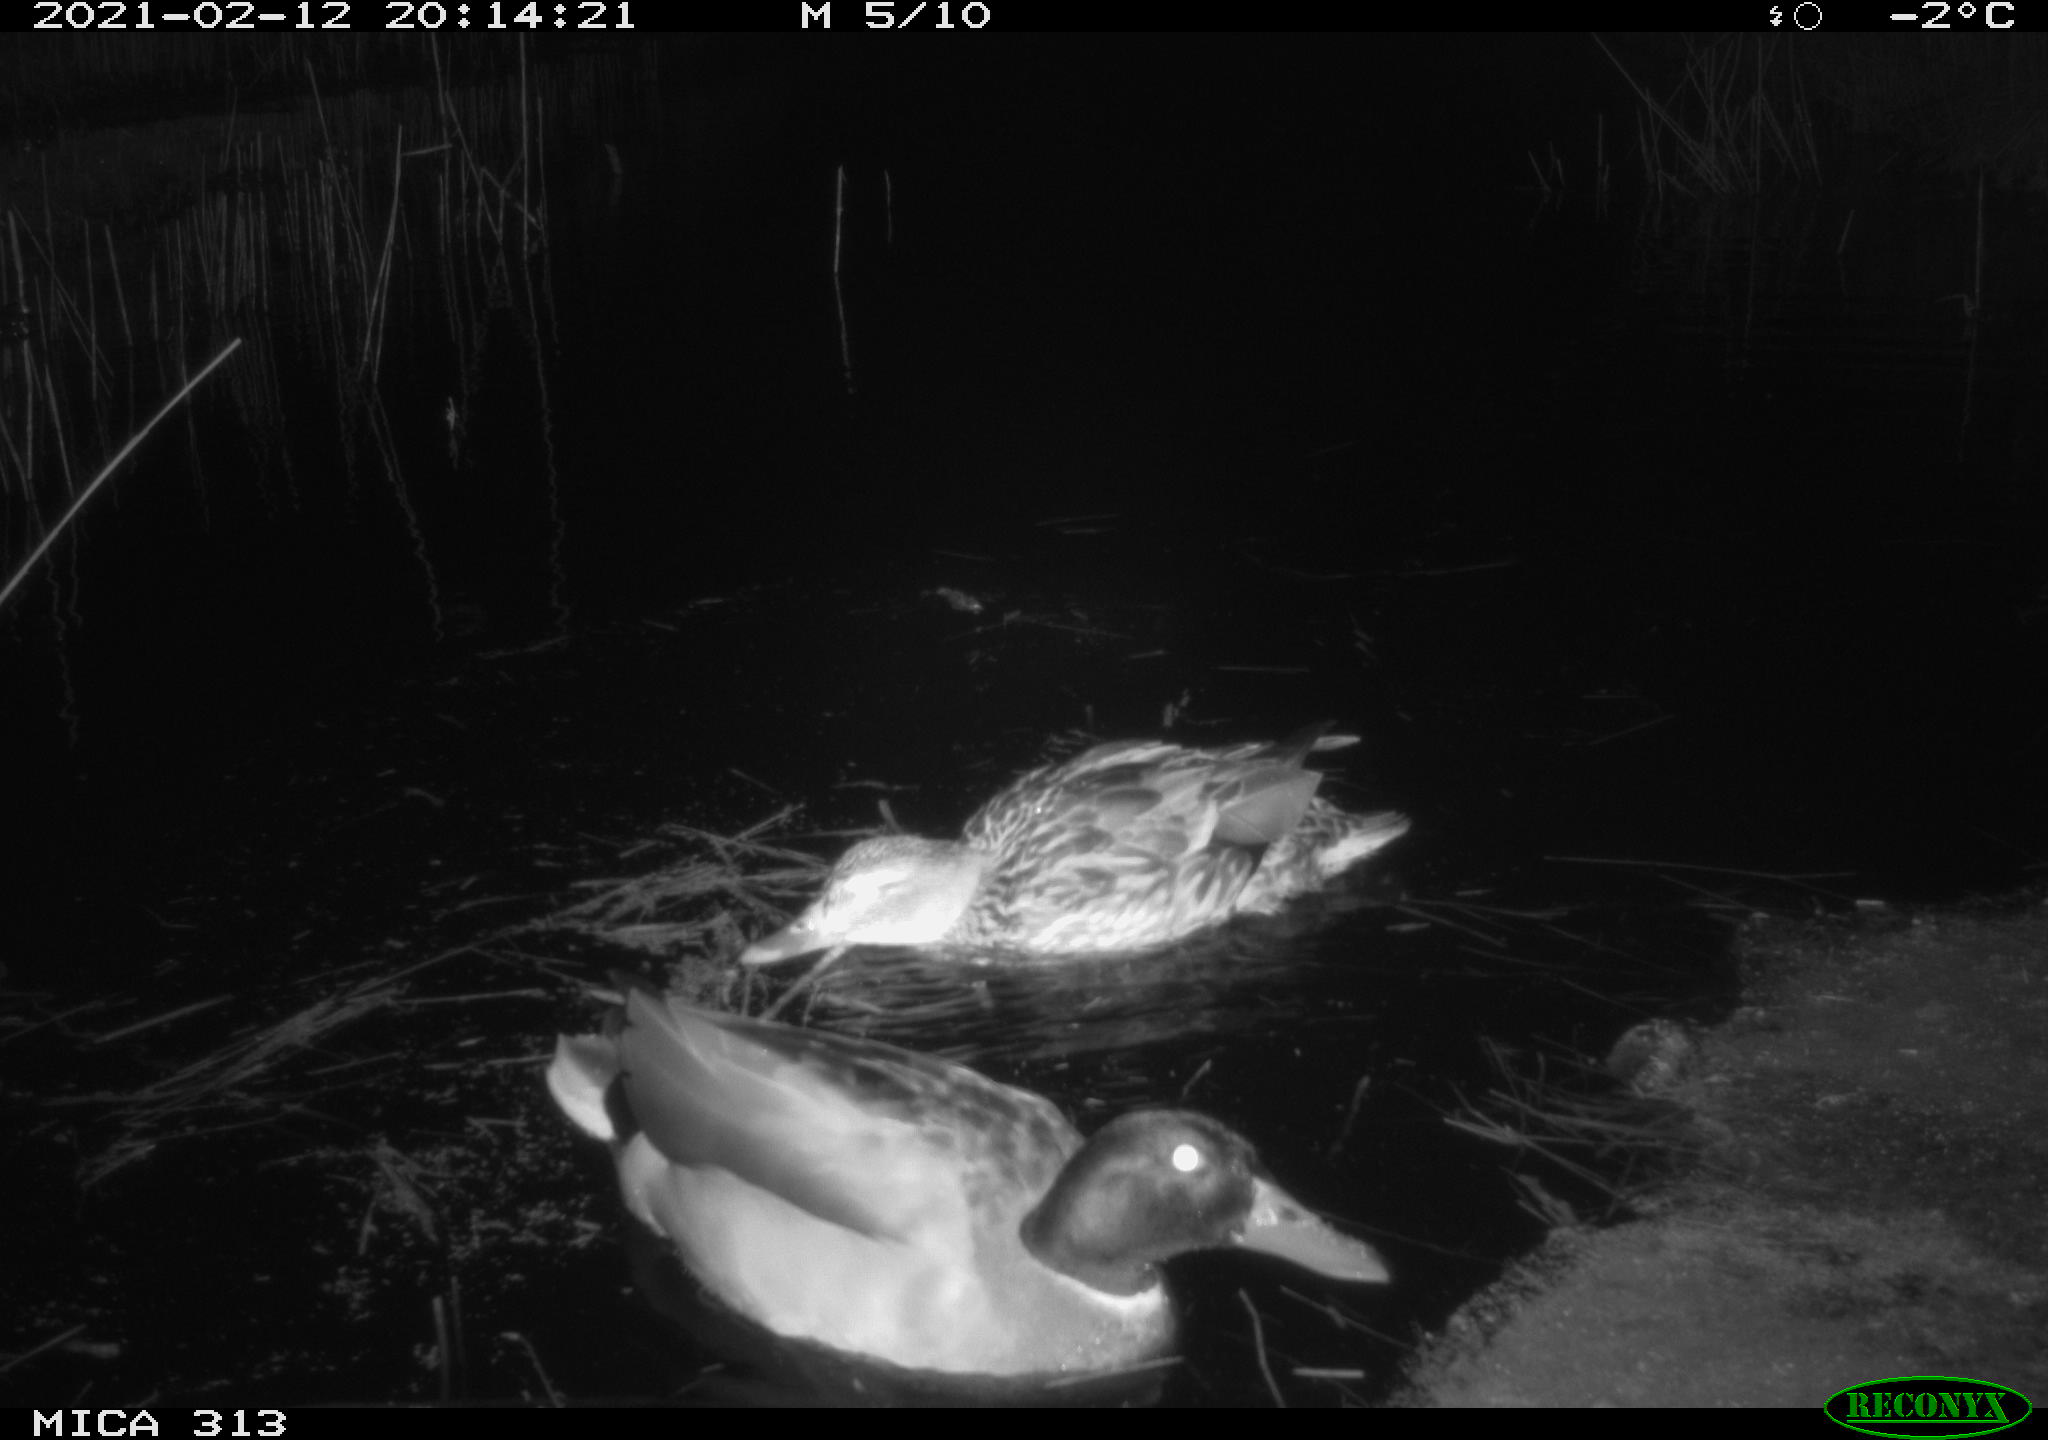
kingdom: Animalia
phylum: Chordata
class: Aves
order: Anseriformes
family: Anatidae
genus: Anas
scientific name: Anas
